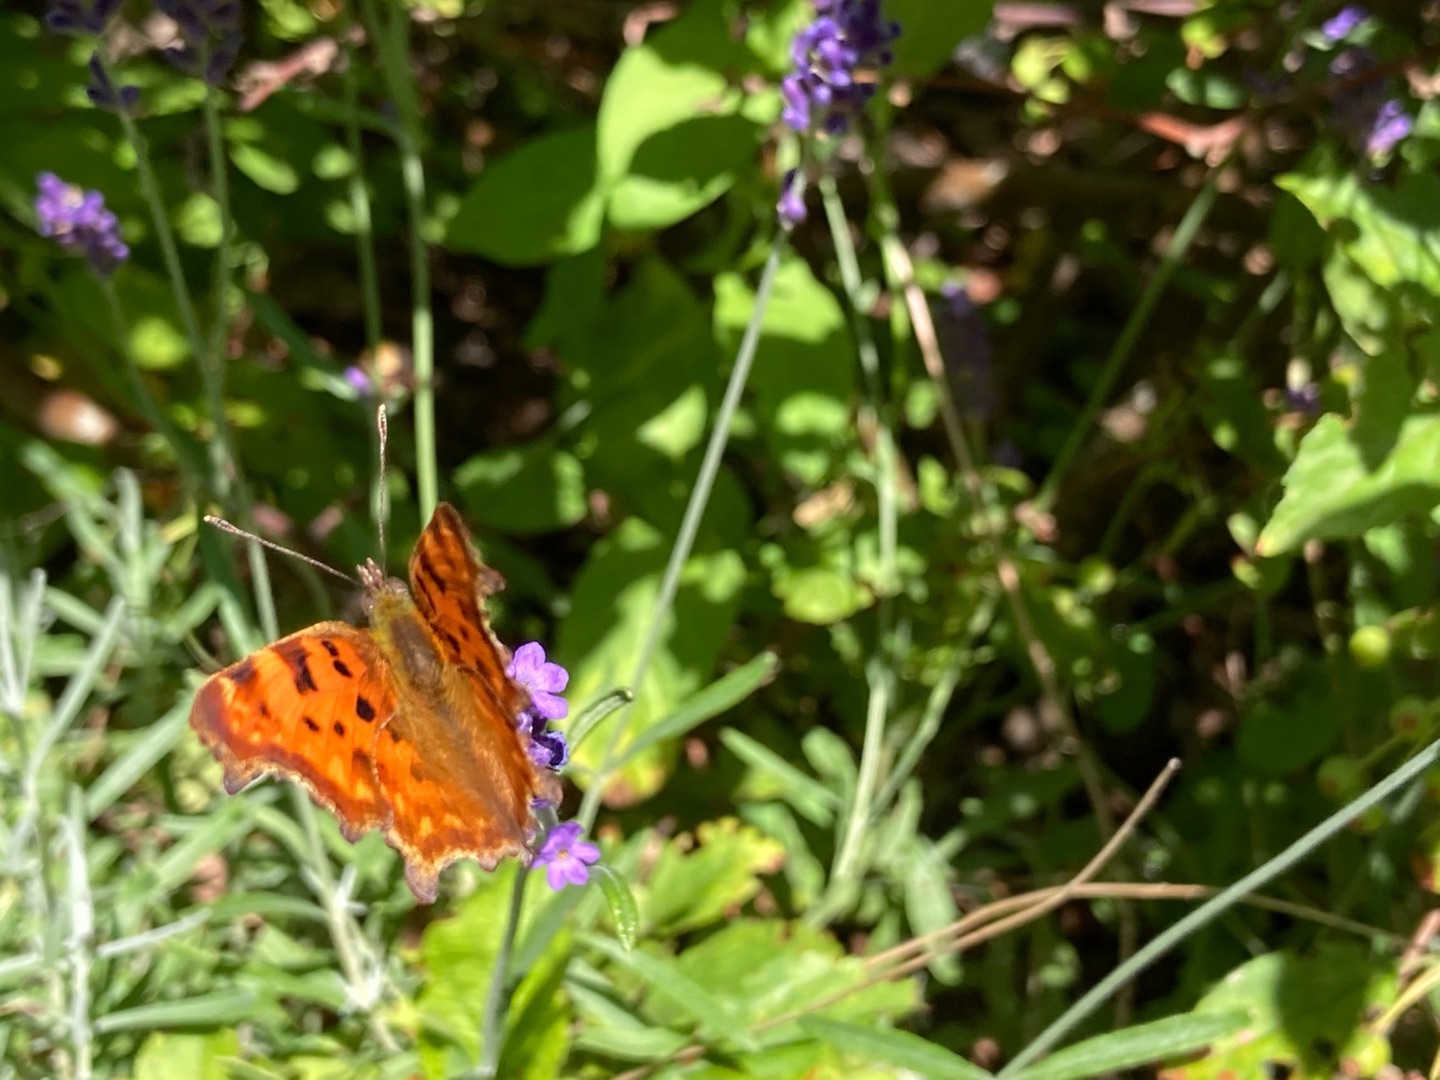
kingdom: Animalia
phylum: Arthropoda
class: Insecta
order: Lepidoptera
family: Nymphalidae
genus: Polygonia
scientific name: Polygonia c-album
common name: Det hvide C
